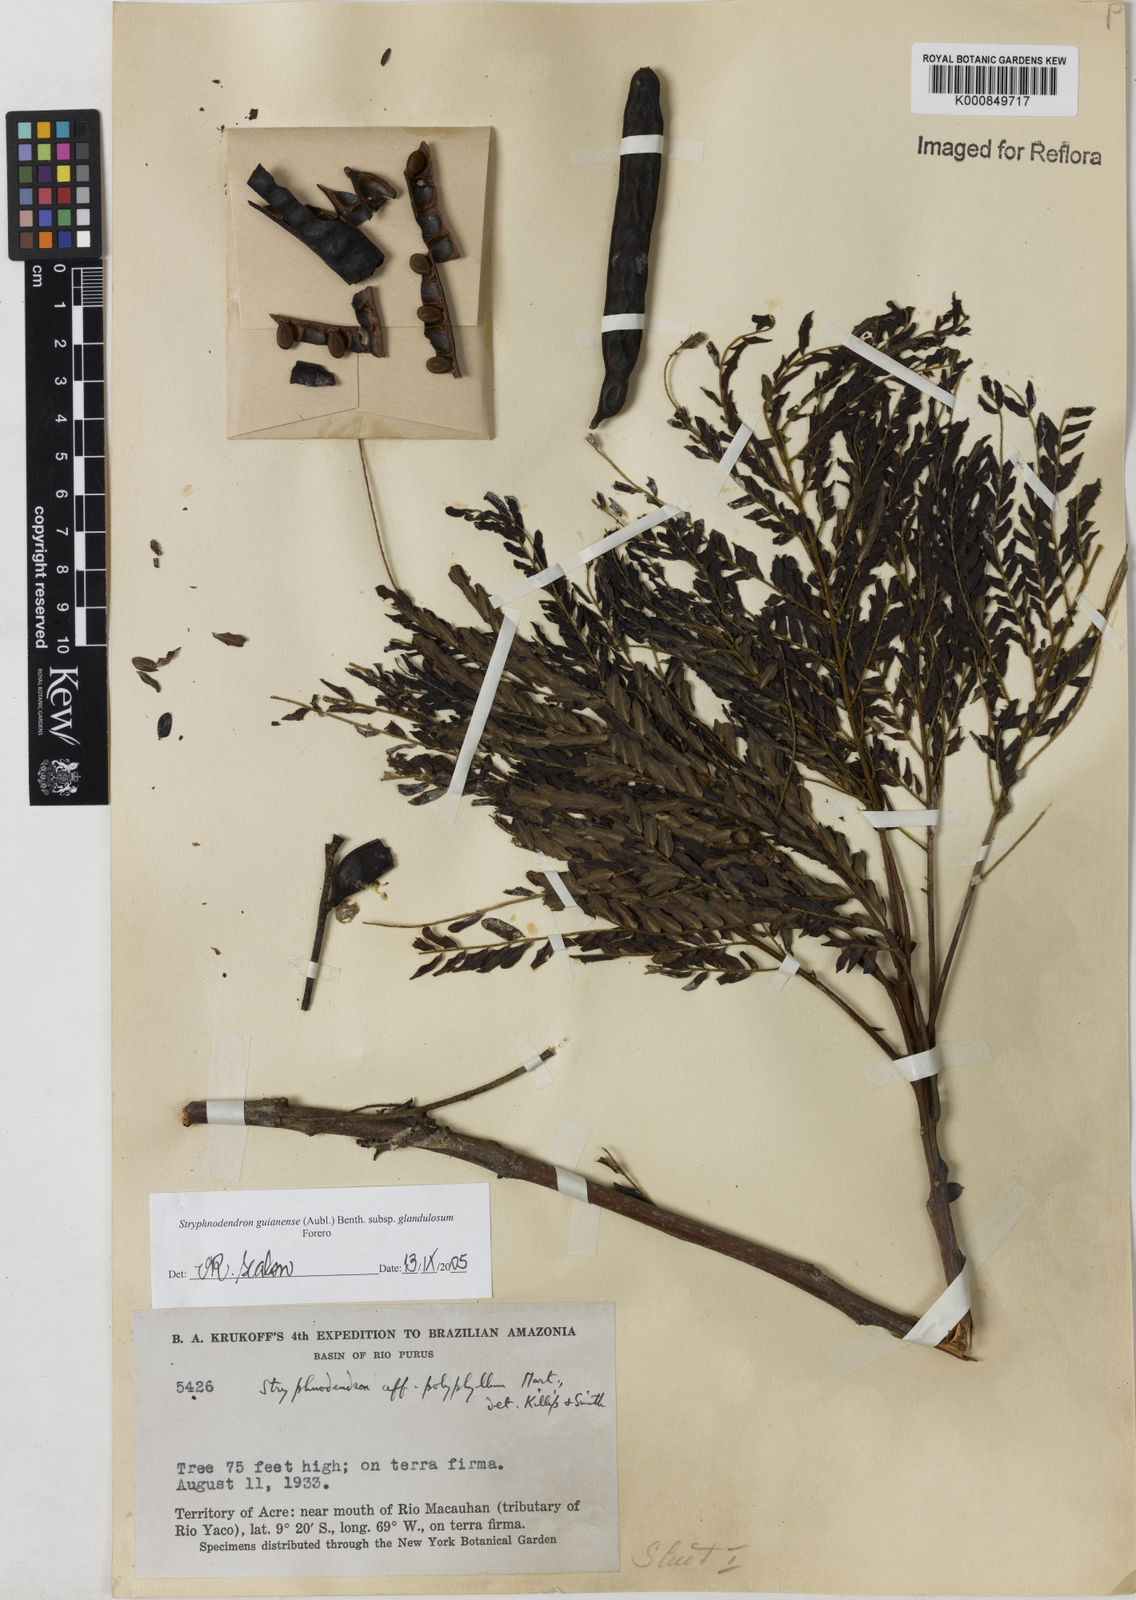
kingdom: Plantae
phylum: Tracheophyta
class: Magnoliopsida
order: Fabales
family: Fabaceae
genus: Stryphnodendron
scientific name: Stryphnodendron guianense
